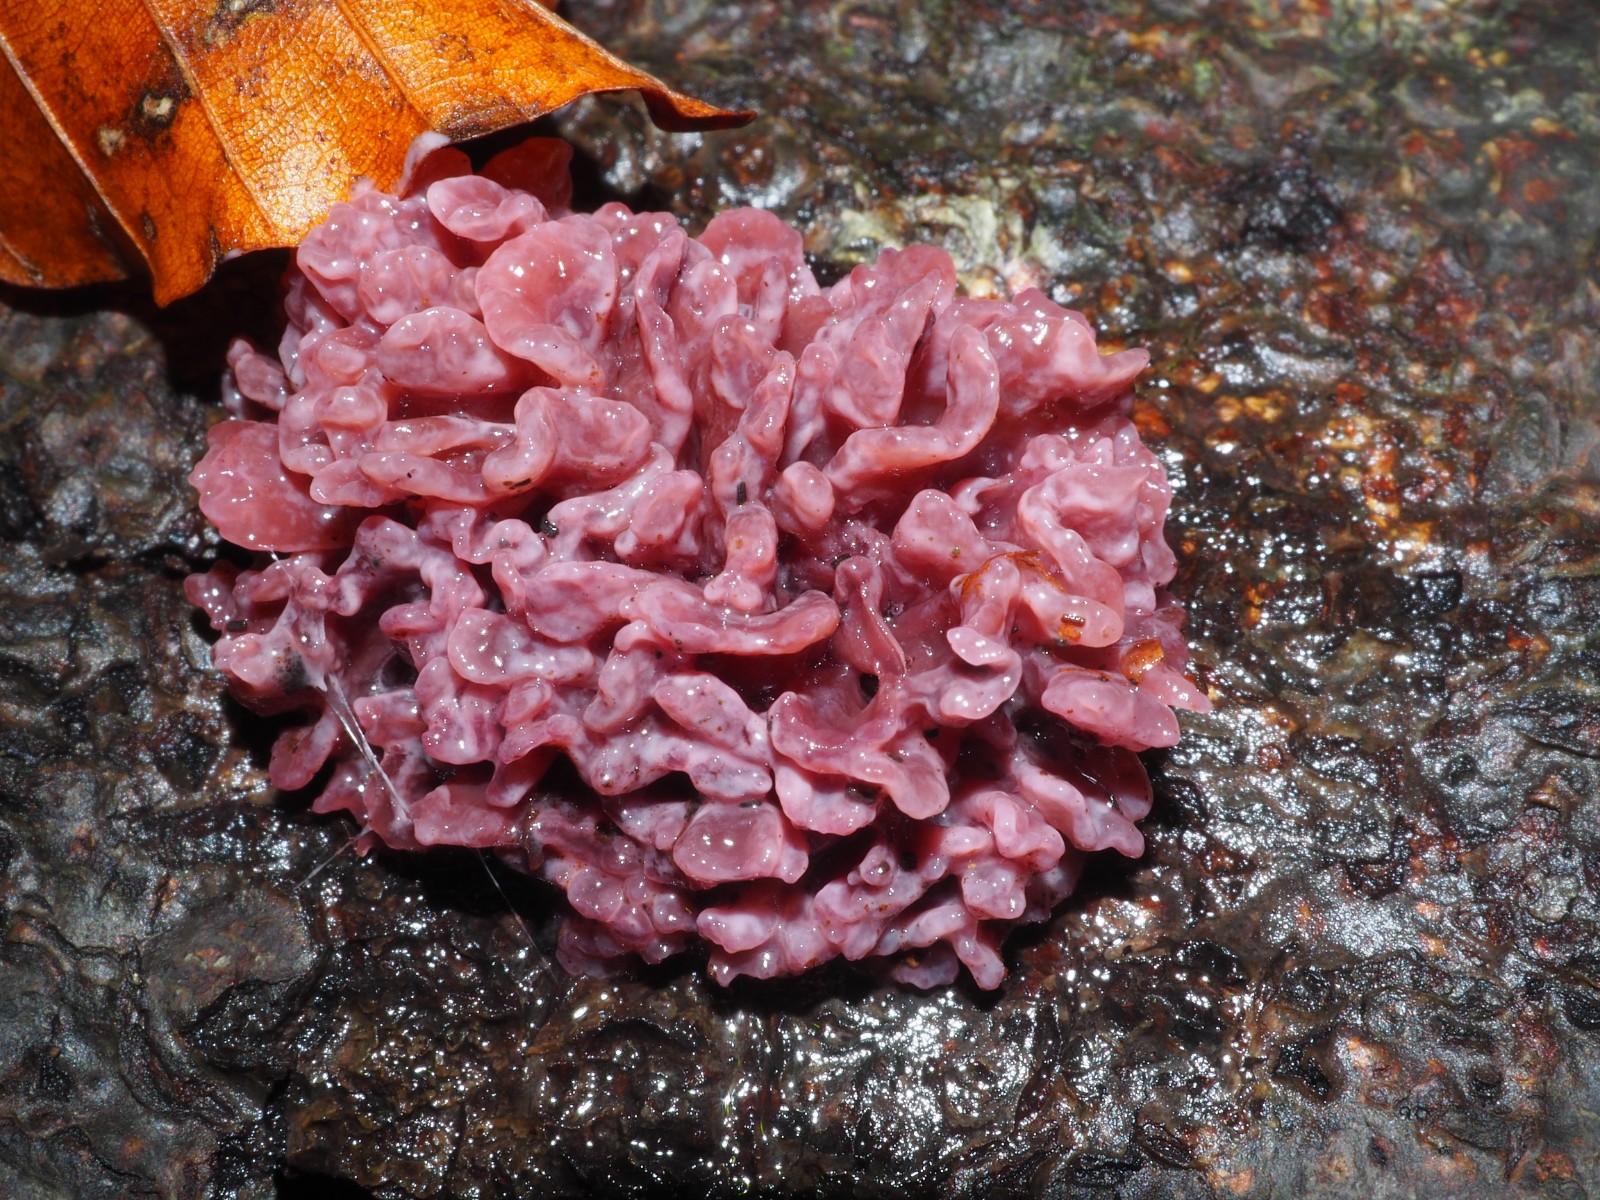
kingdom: Fungi
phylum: Ascomycota
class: Leotiomycetes
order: Helotiales
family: Gelatinodiscaceae
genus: Ascocoryne
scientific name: Ascocoryne sarcoides
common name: rødlilla sejskive
